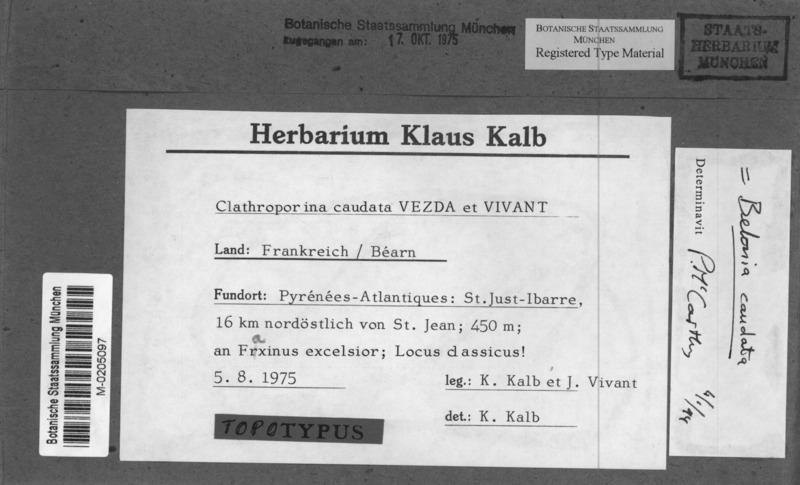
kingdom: Fungi
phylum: Ascomycota
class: Lecanoromycetes
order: Ostropales
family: Porinaceae
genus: Clathroporina
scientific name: Clathroporina caudata
